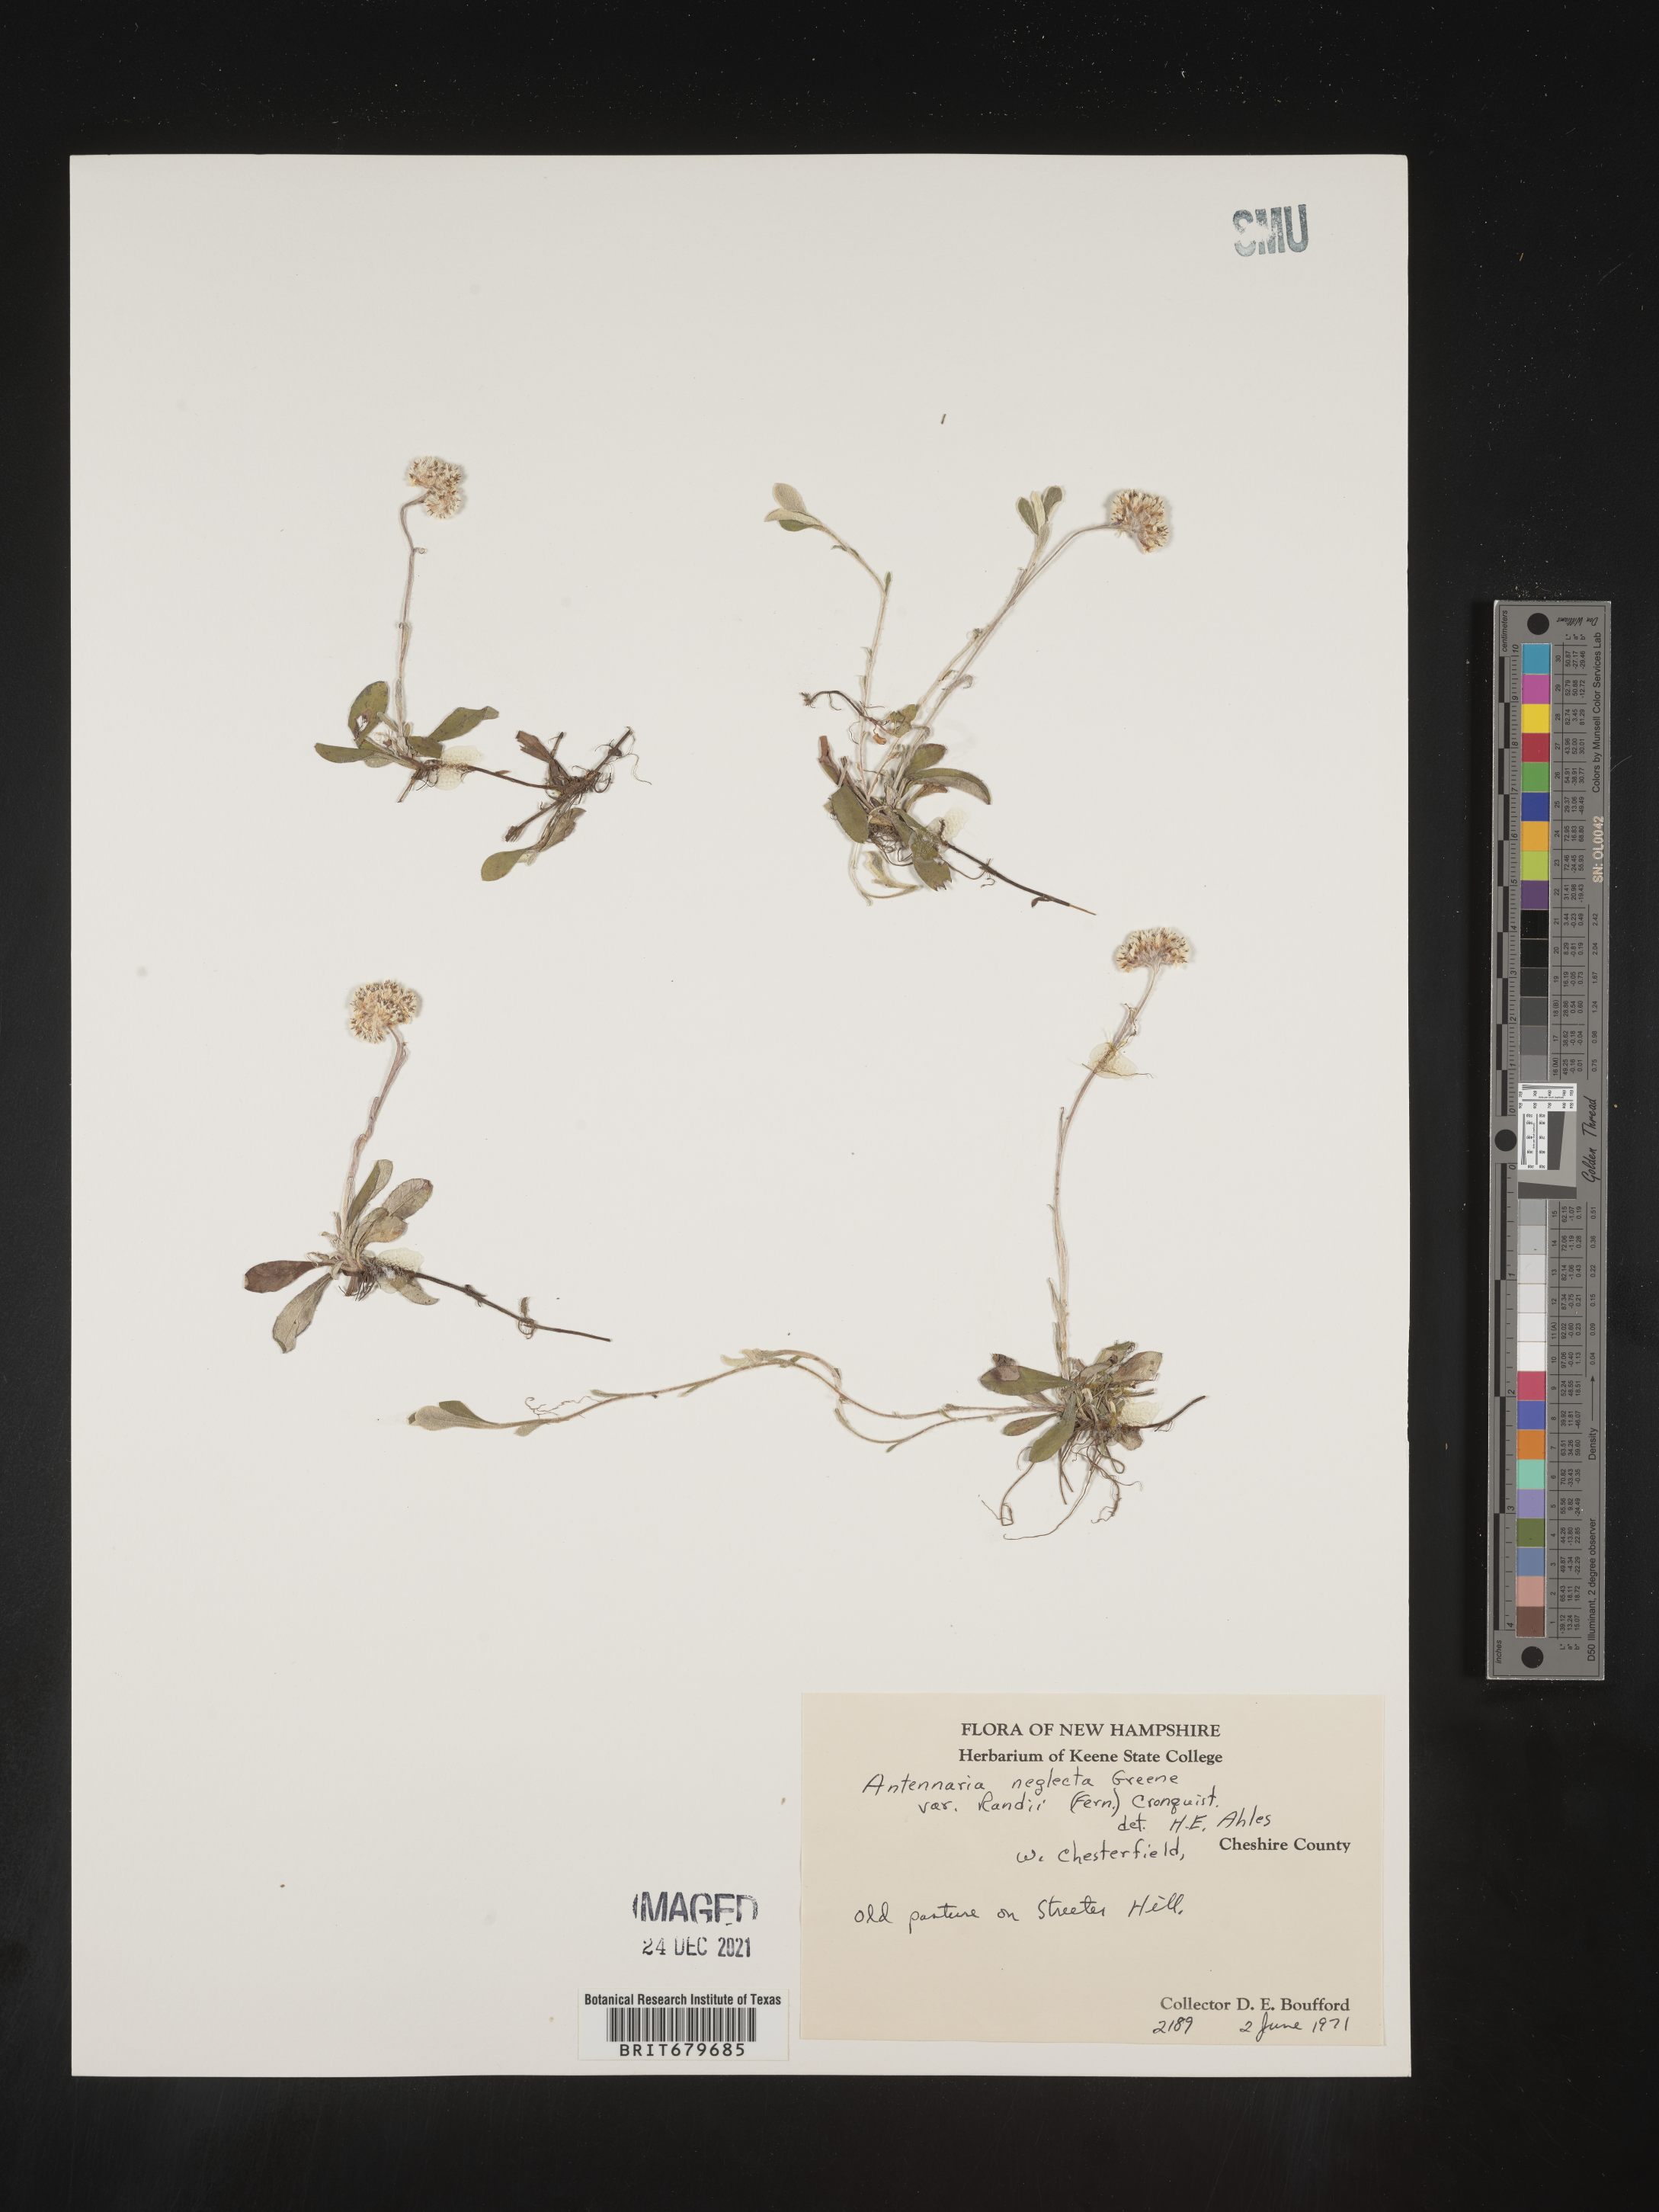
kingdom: Plantae
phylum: Tracheophyta
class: Magnoliopsida
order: Asterales
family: Asteraceae
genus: Antennaria
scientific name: Antennaria neglecta
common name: Field pussytoes
